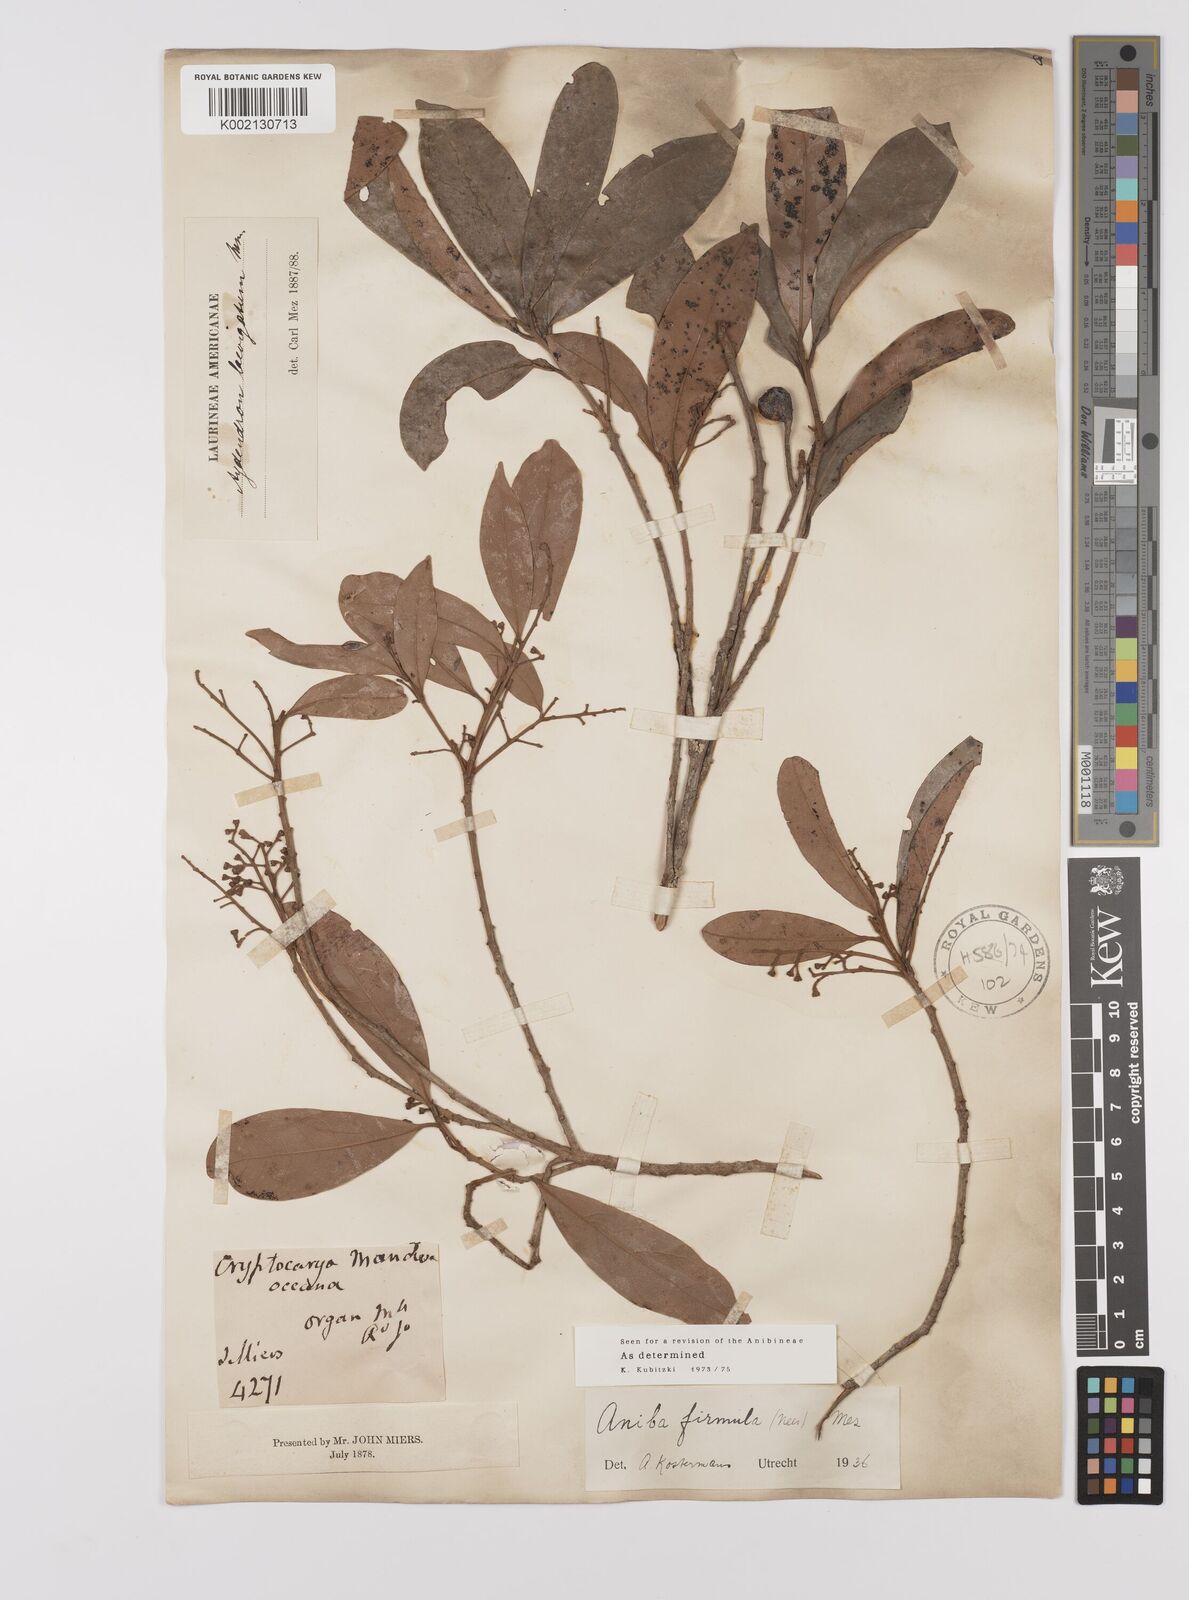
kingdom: Plantae
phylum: Tracheophyta
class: Magnoliopsida
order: Laurales
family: Lauraceae
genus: Aniba
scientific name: Aniba firmula
